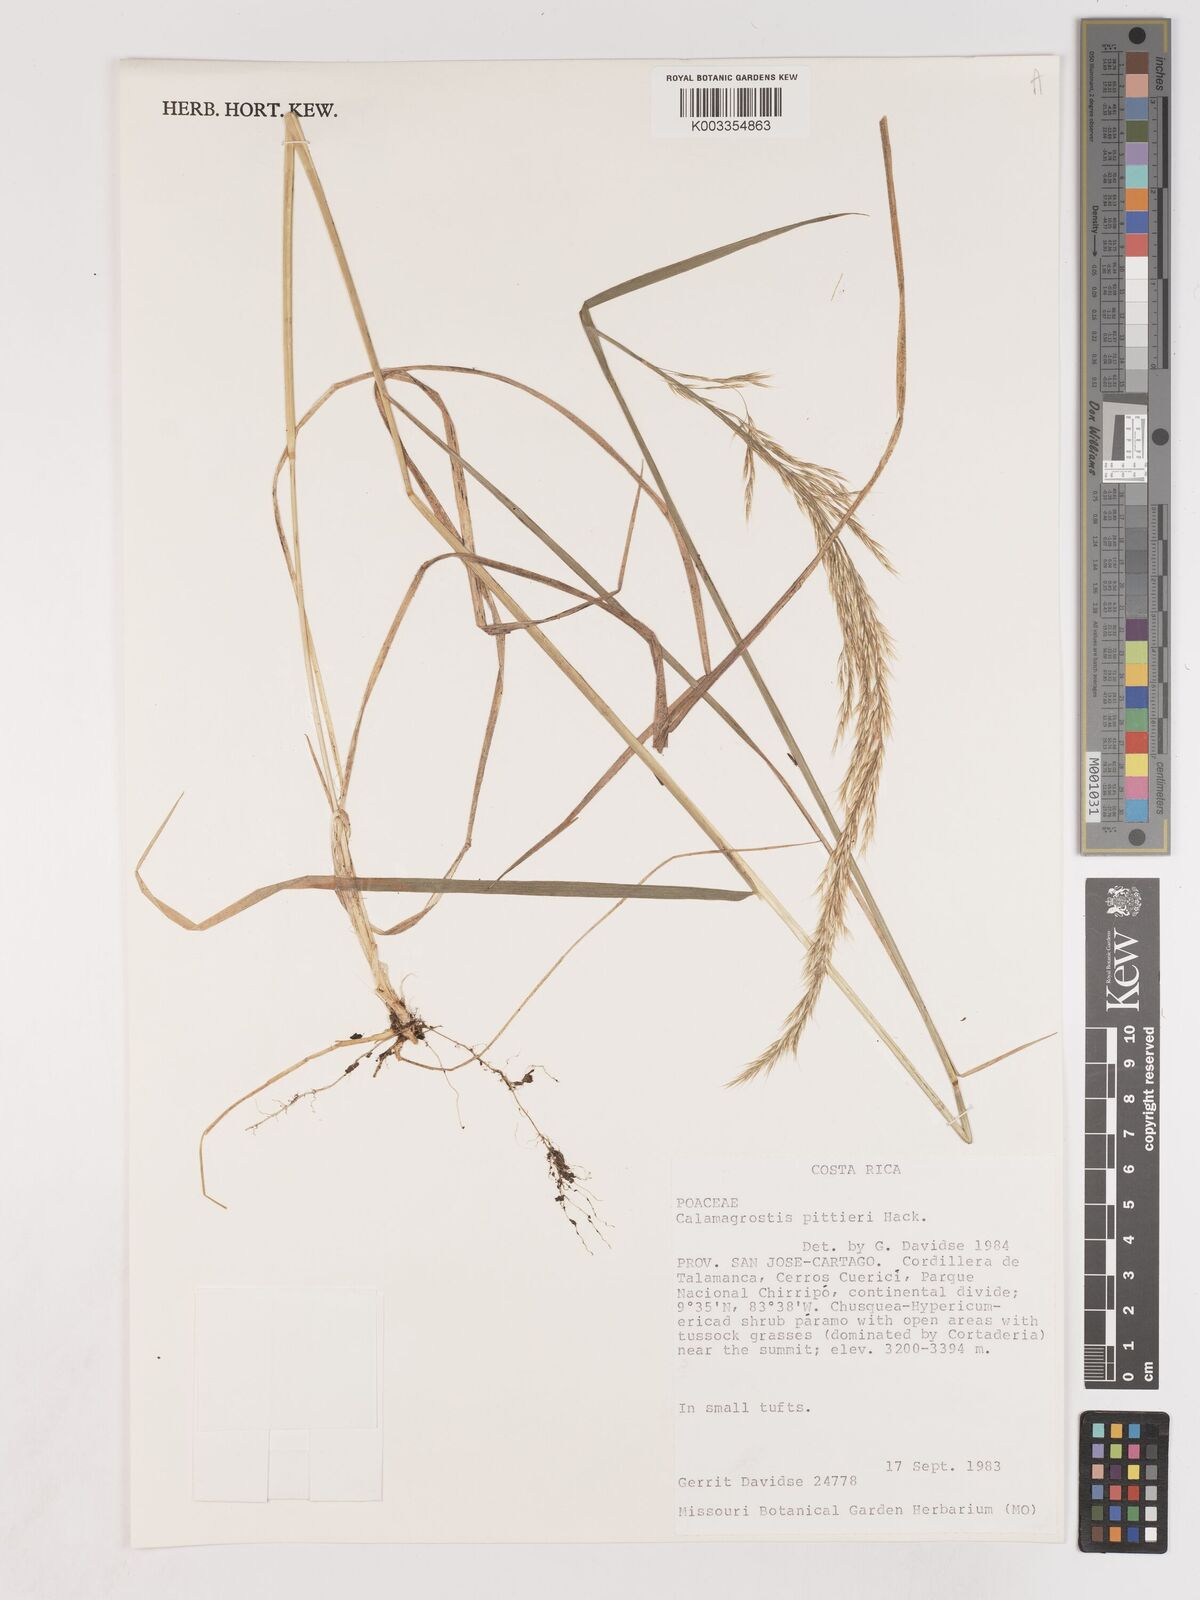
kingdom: Plantae
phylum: Tracheophyta
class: Liliopsida
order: Poales
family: Poaceae
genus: Calamagrostis
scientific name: Calamagrostis
